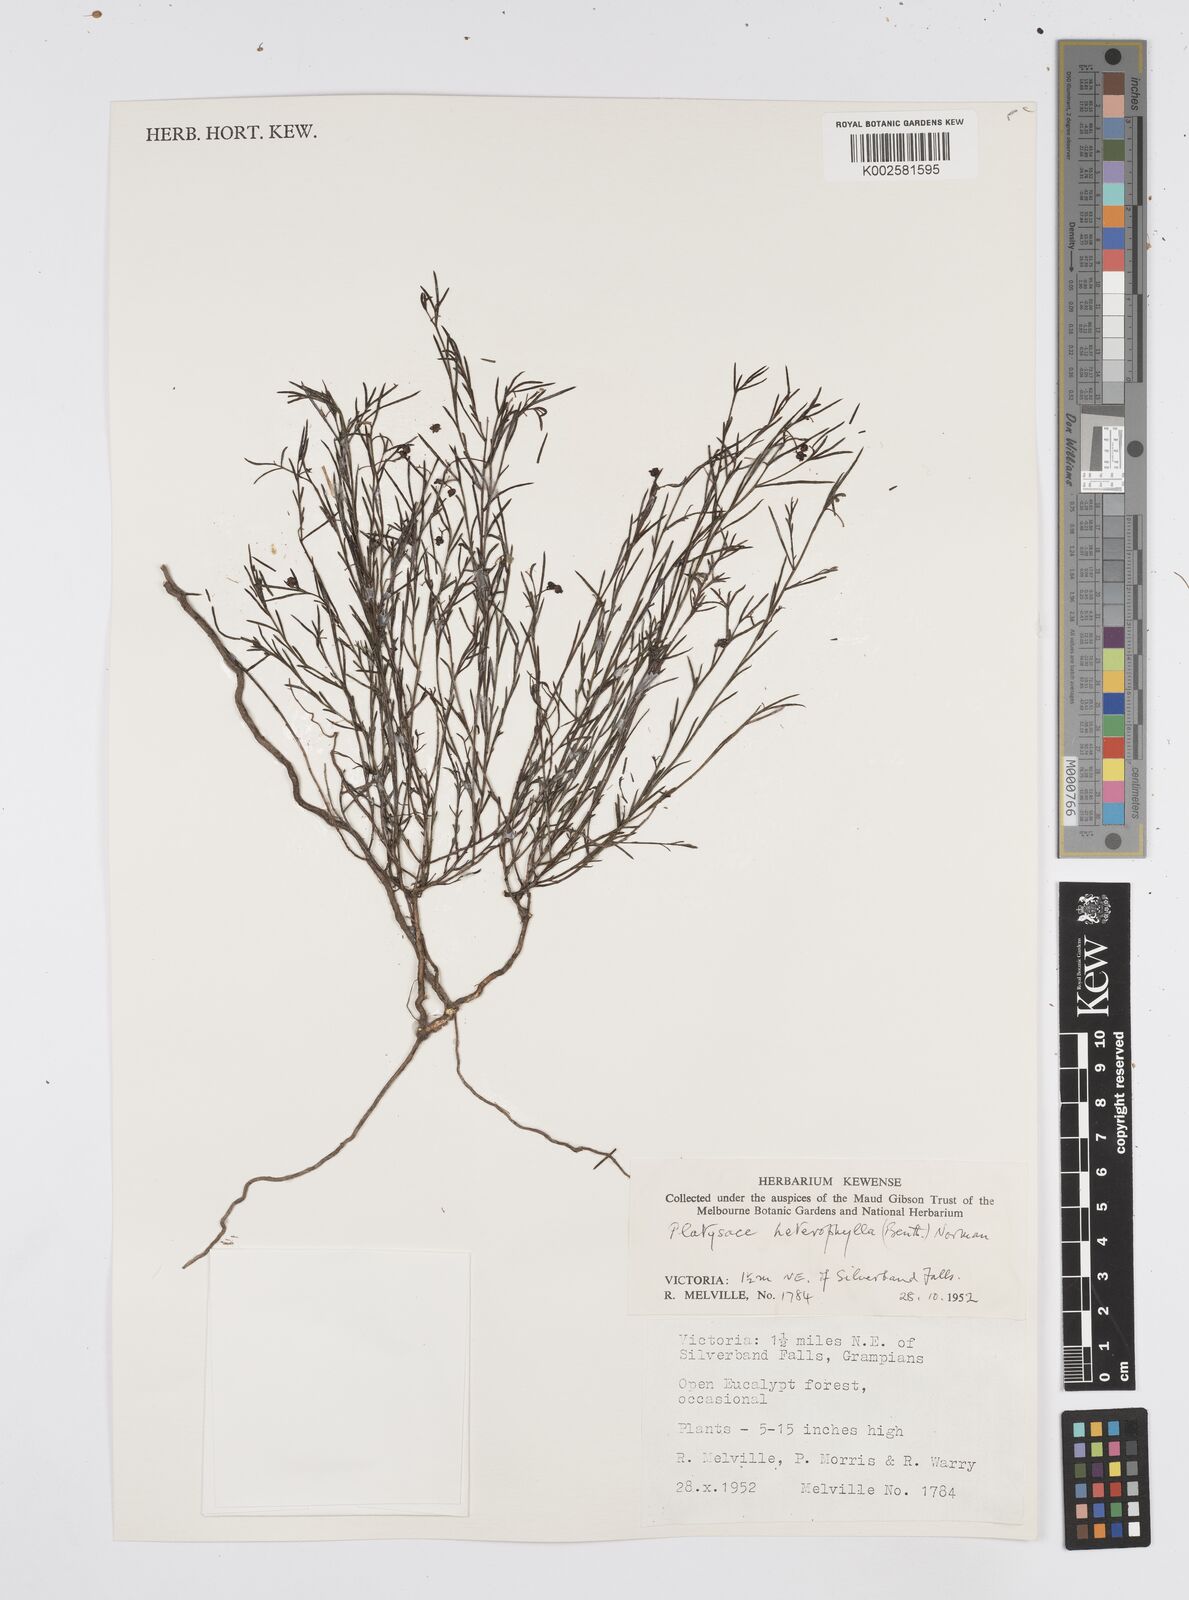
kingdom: Plantae
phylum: Tracheophyta
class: Magnoliopsida
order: Apiales
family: Apiaceae
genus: Platysace
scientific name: Platysace heterophylla
